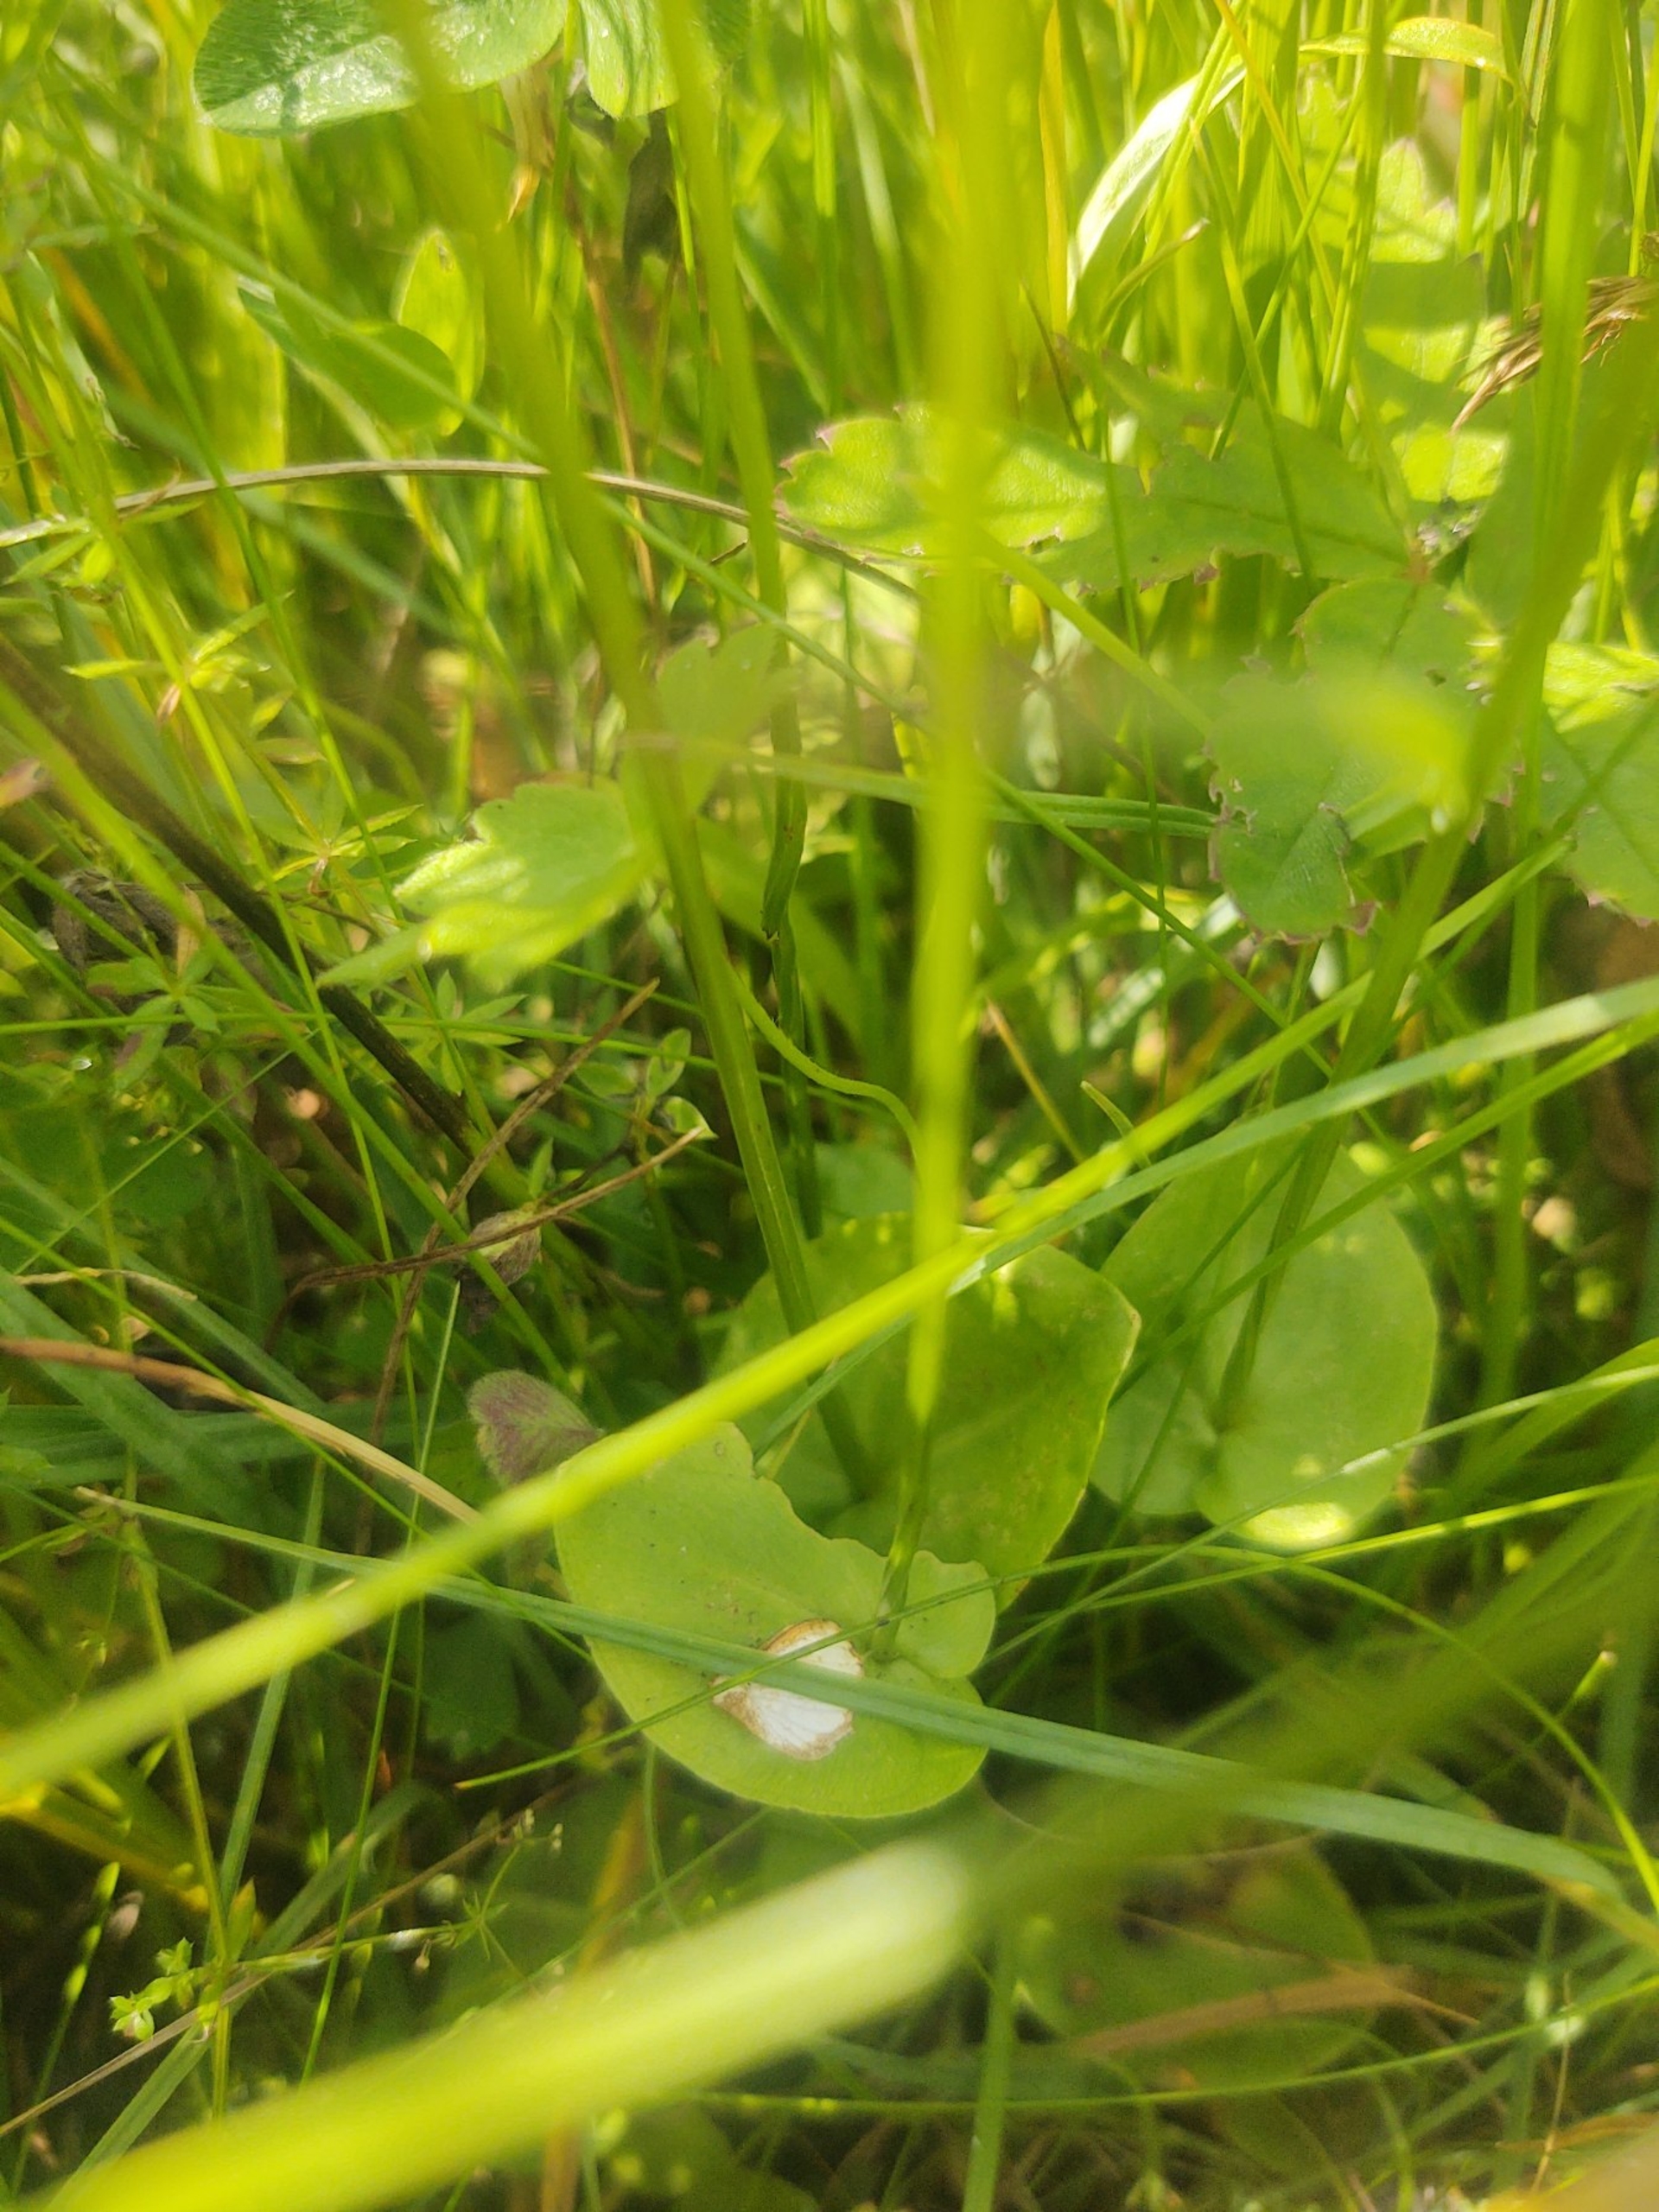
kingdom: Plantae
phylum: Tracheophyta
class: Magnoliopsida
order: Celastrales
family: Parnassiaceae
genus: Parnassia
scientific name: Parnassia palustris
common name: Leverurt
